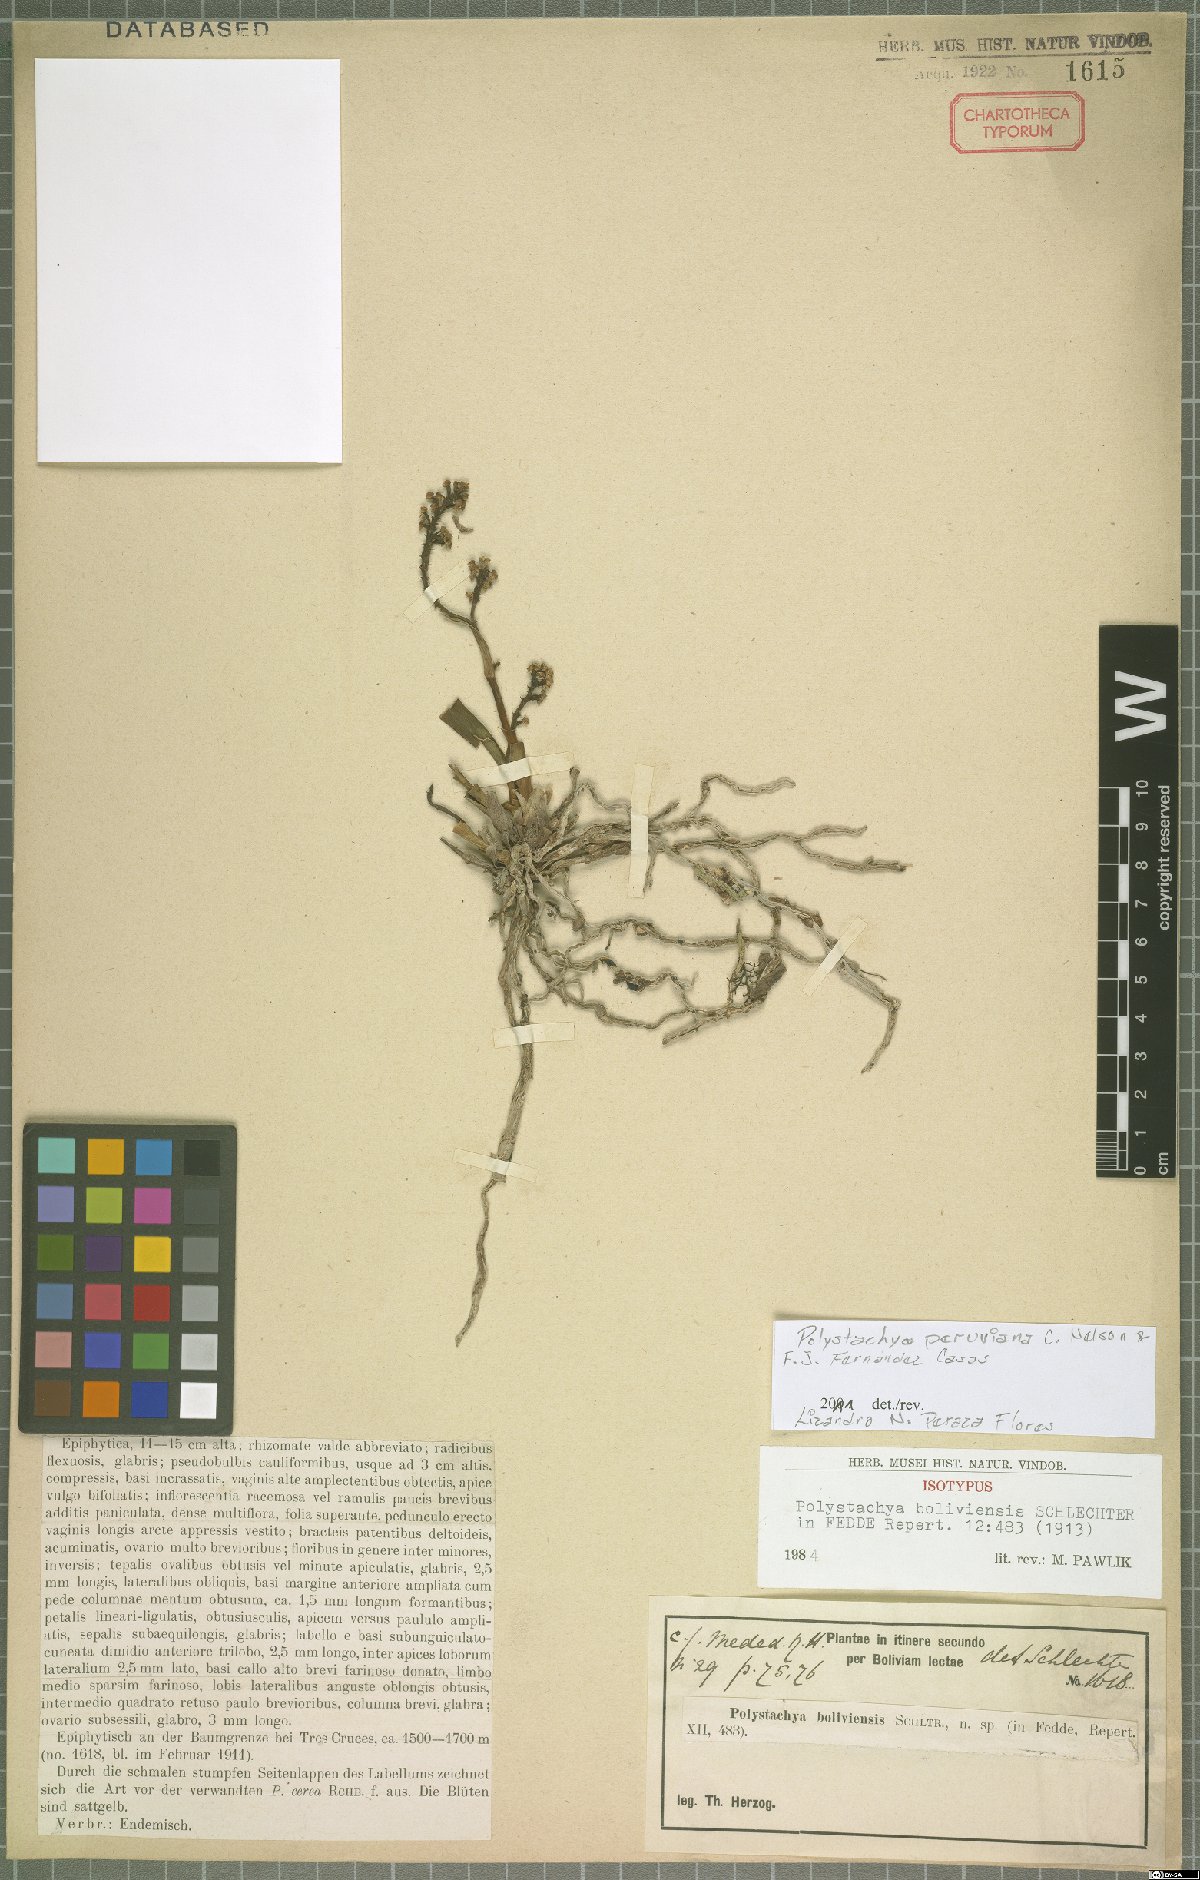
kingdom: Plantae
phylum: Tracheophyta
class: Liliopsida
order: Asparagales
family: Orchidaceae
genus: Polystachya
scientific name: Polystachya paulensis
